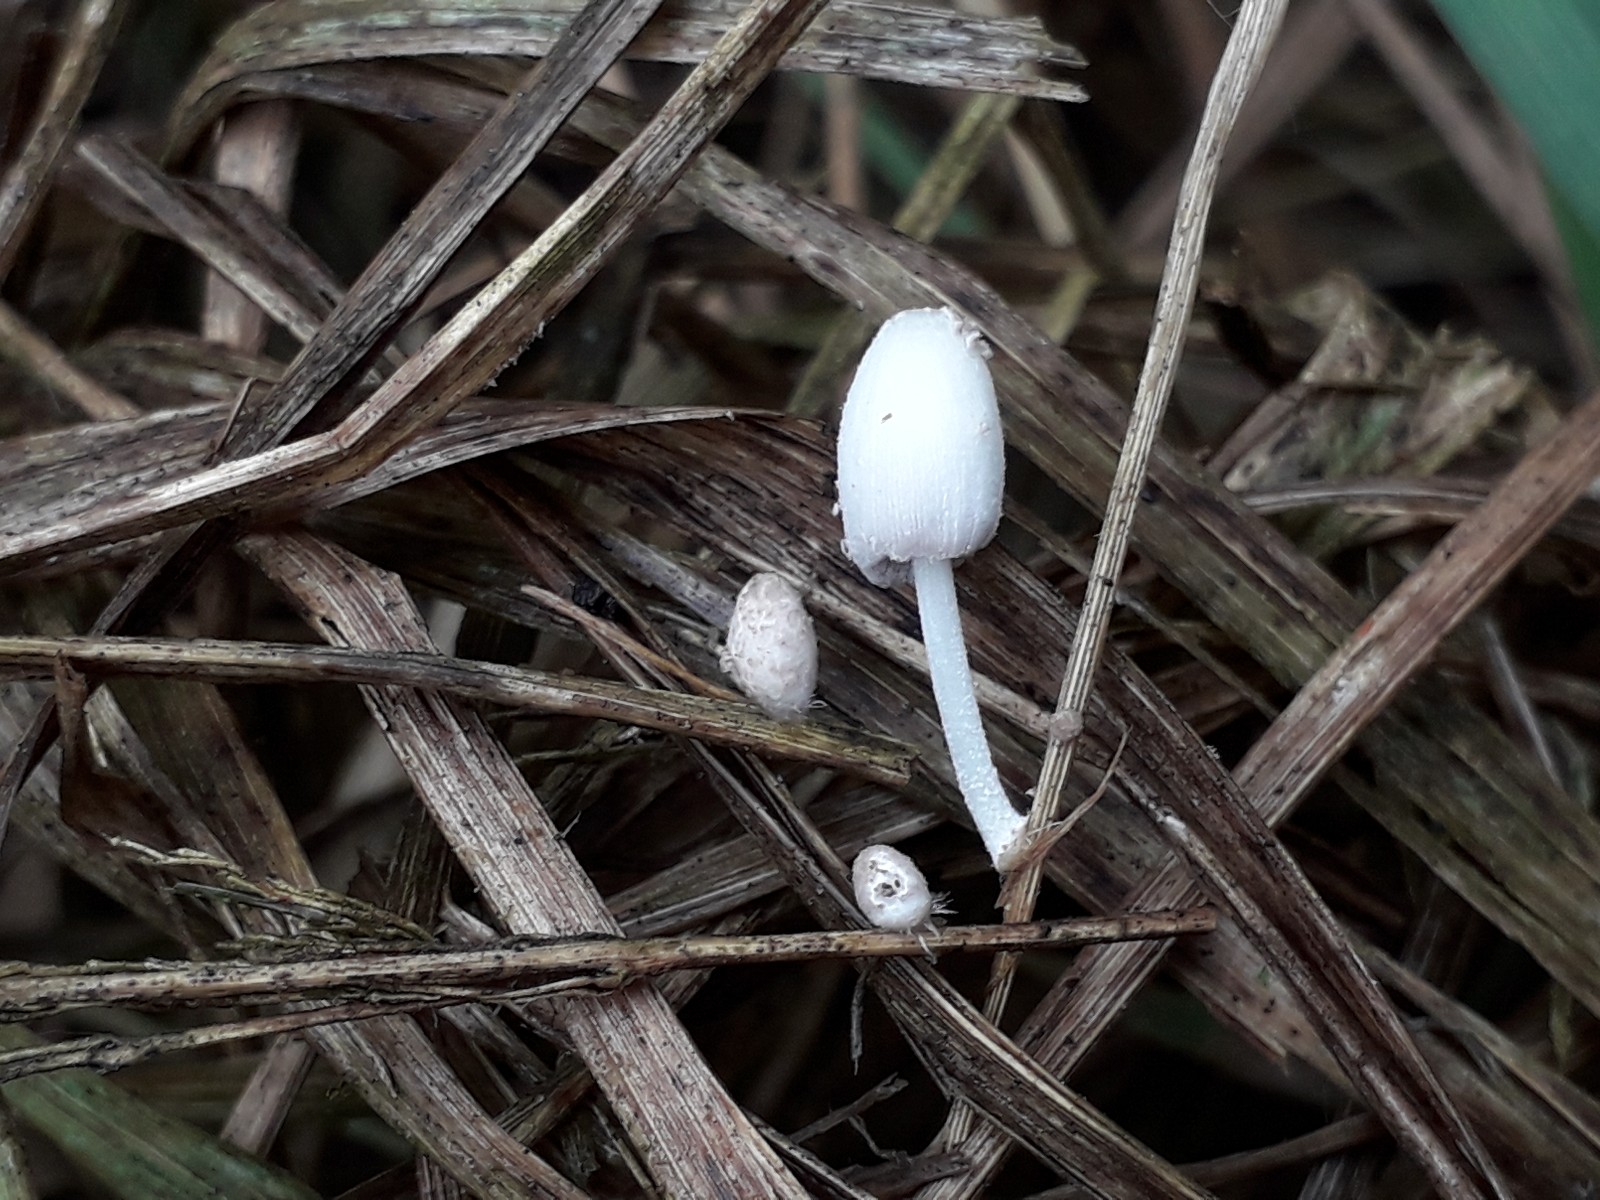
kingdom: Fungi
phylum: Basidiomycota
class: Agaricomycetes
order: Agaricales
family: Psathyrellaceae
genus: Coprinopsis
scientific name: Coprinopsis tigrinella
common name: brunfnugget blækhat
